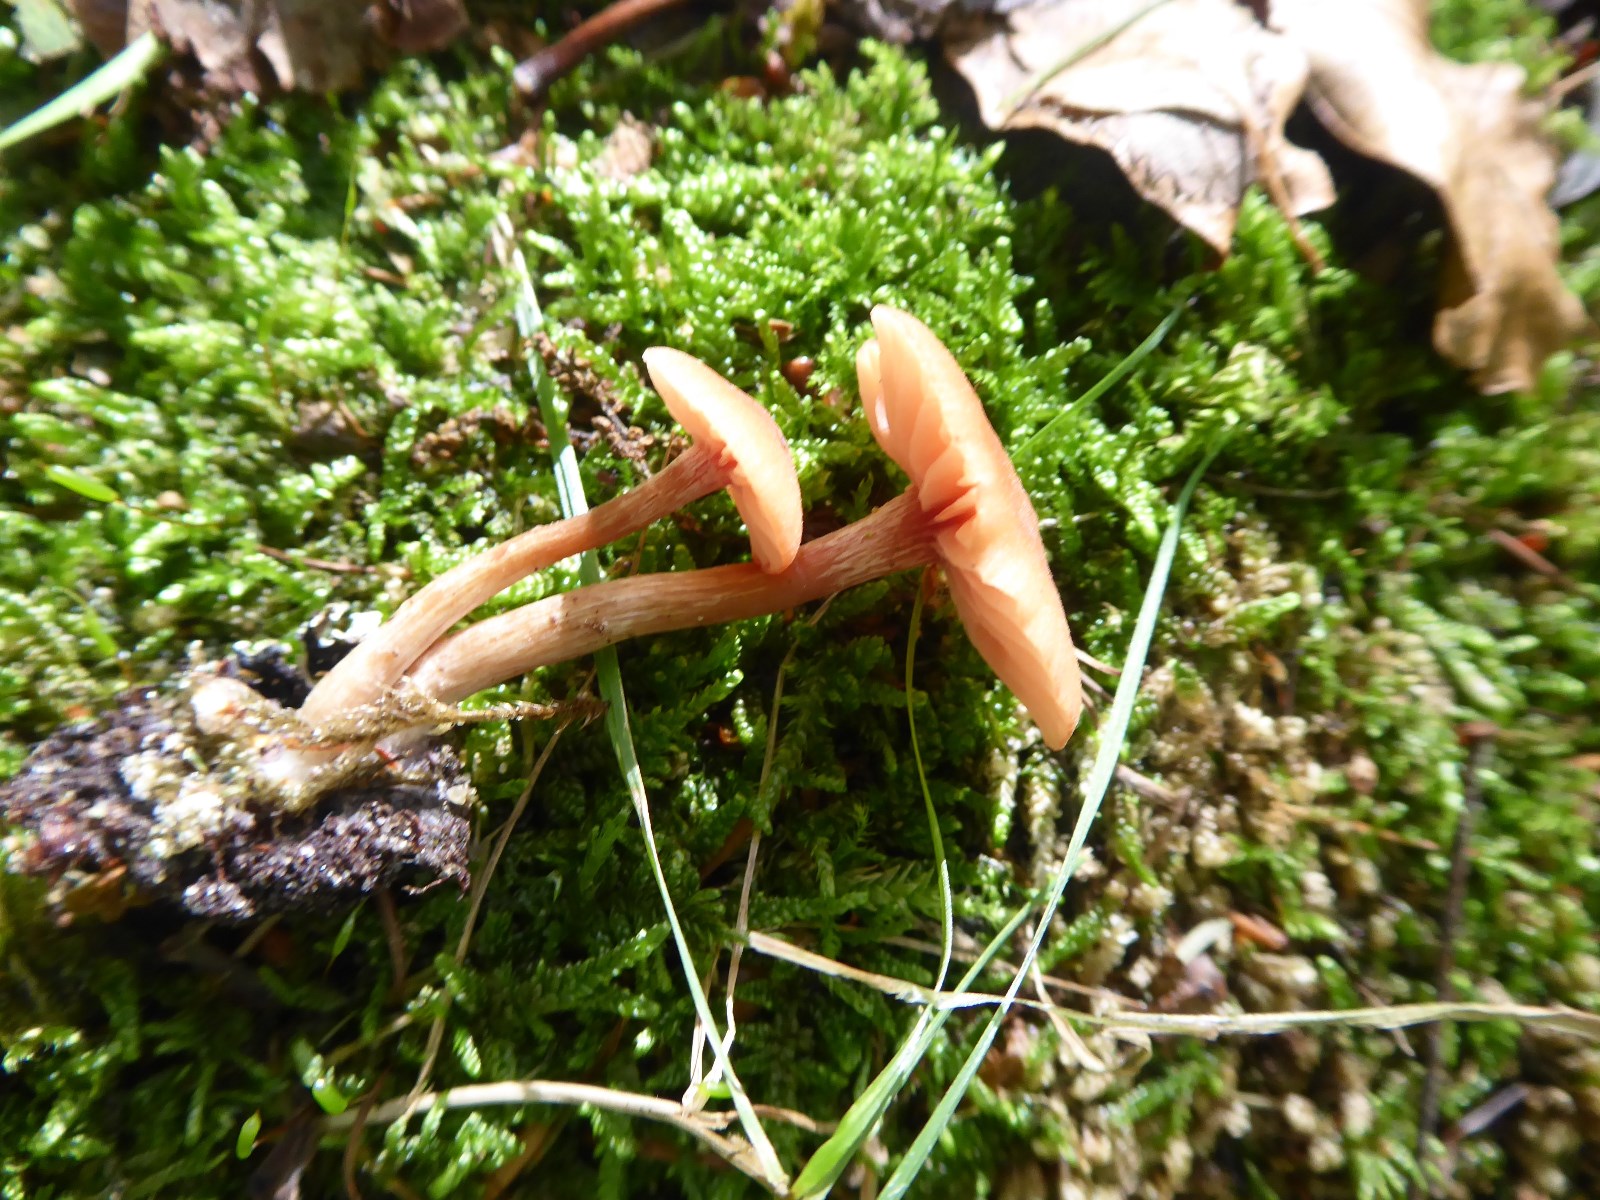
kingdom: Fungi
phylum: Basidiomycota
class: Agaricomycetes
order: Agaricales
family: Hydnangiaceae
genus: Laccaria
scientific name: Laccaria laccata
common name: rød ametysthat
